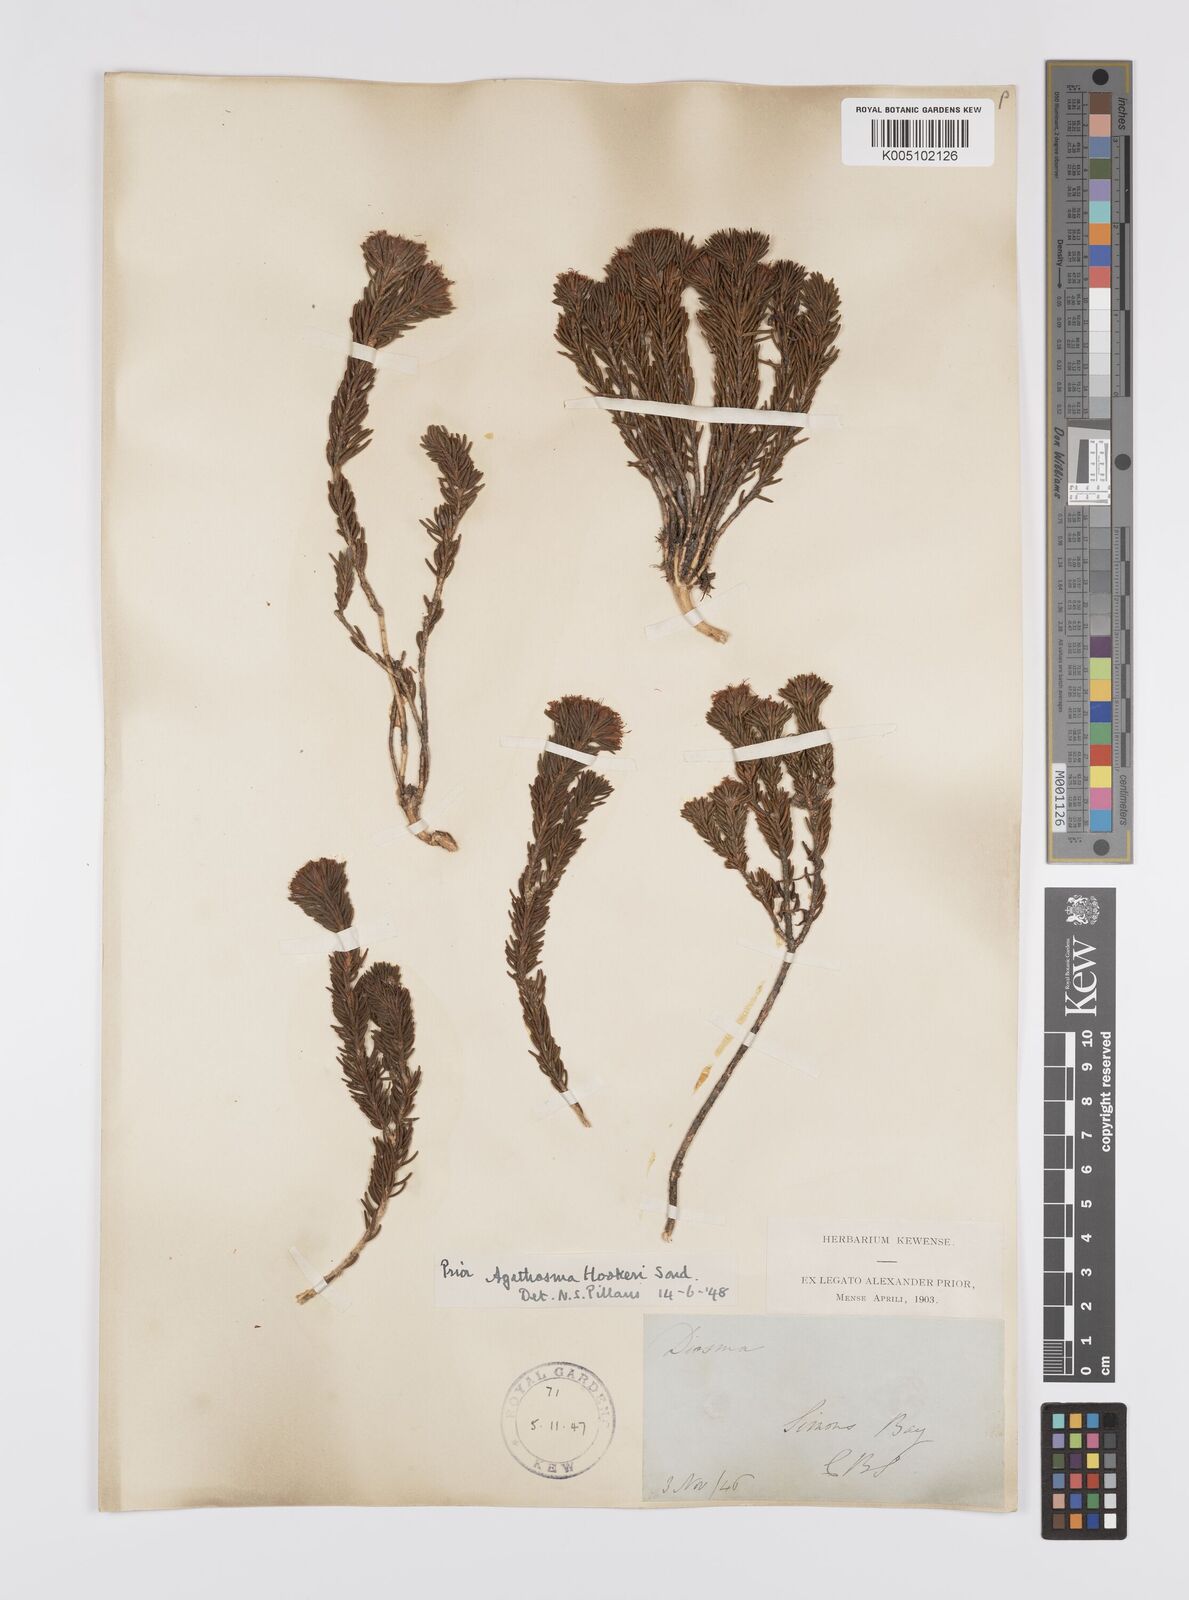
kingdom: Plantae
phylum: Tracheophyta
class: Magnoliopsida
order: Sapindales
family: Rutaceae
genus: Agathosma
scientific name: Agathosma hookeri
